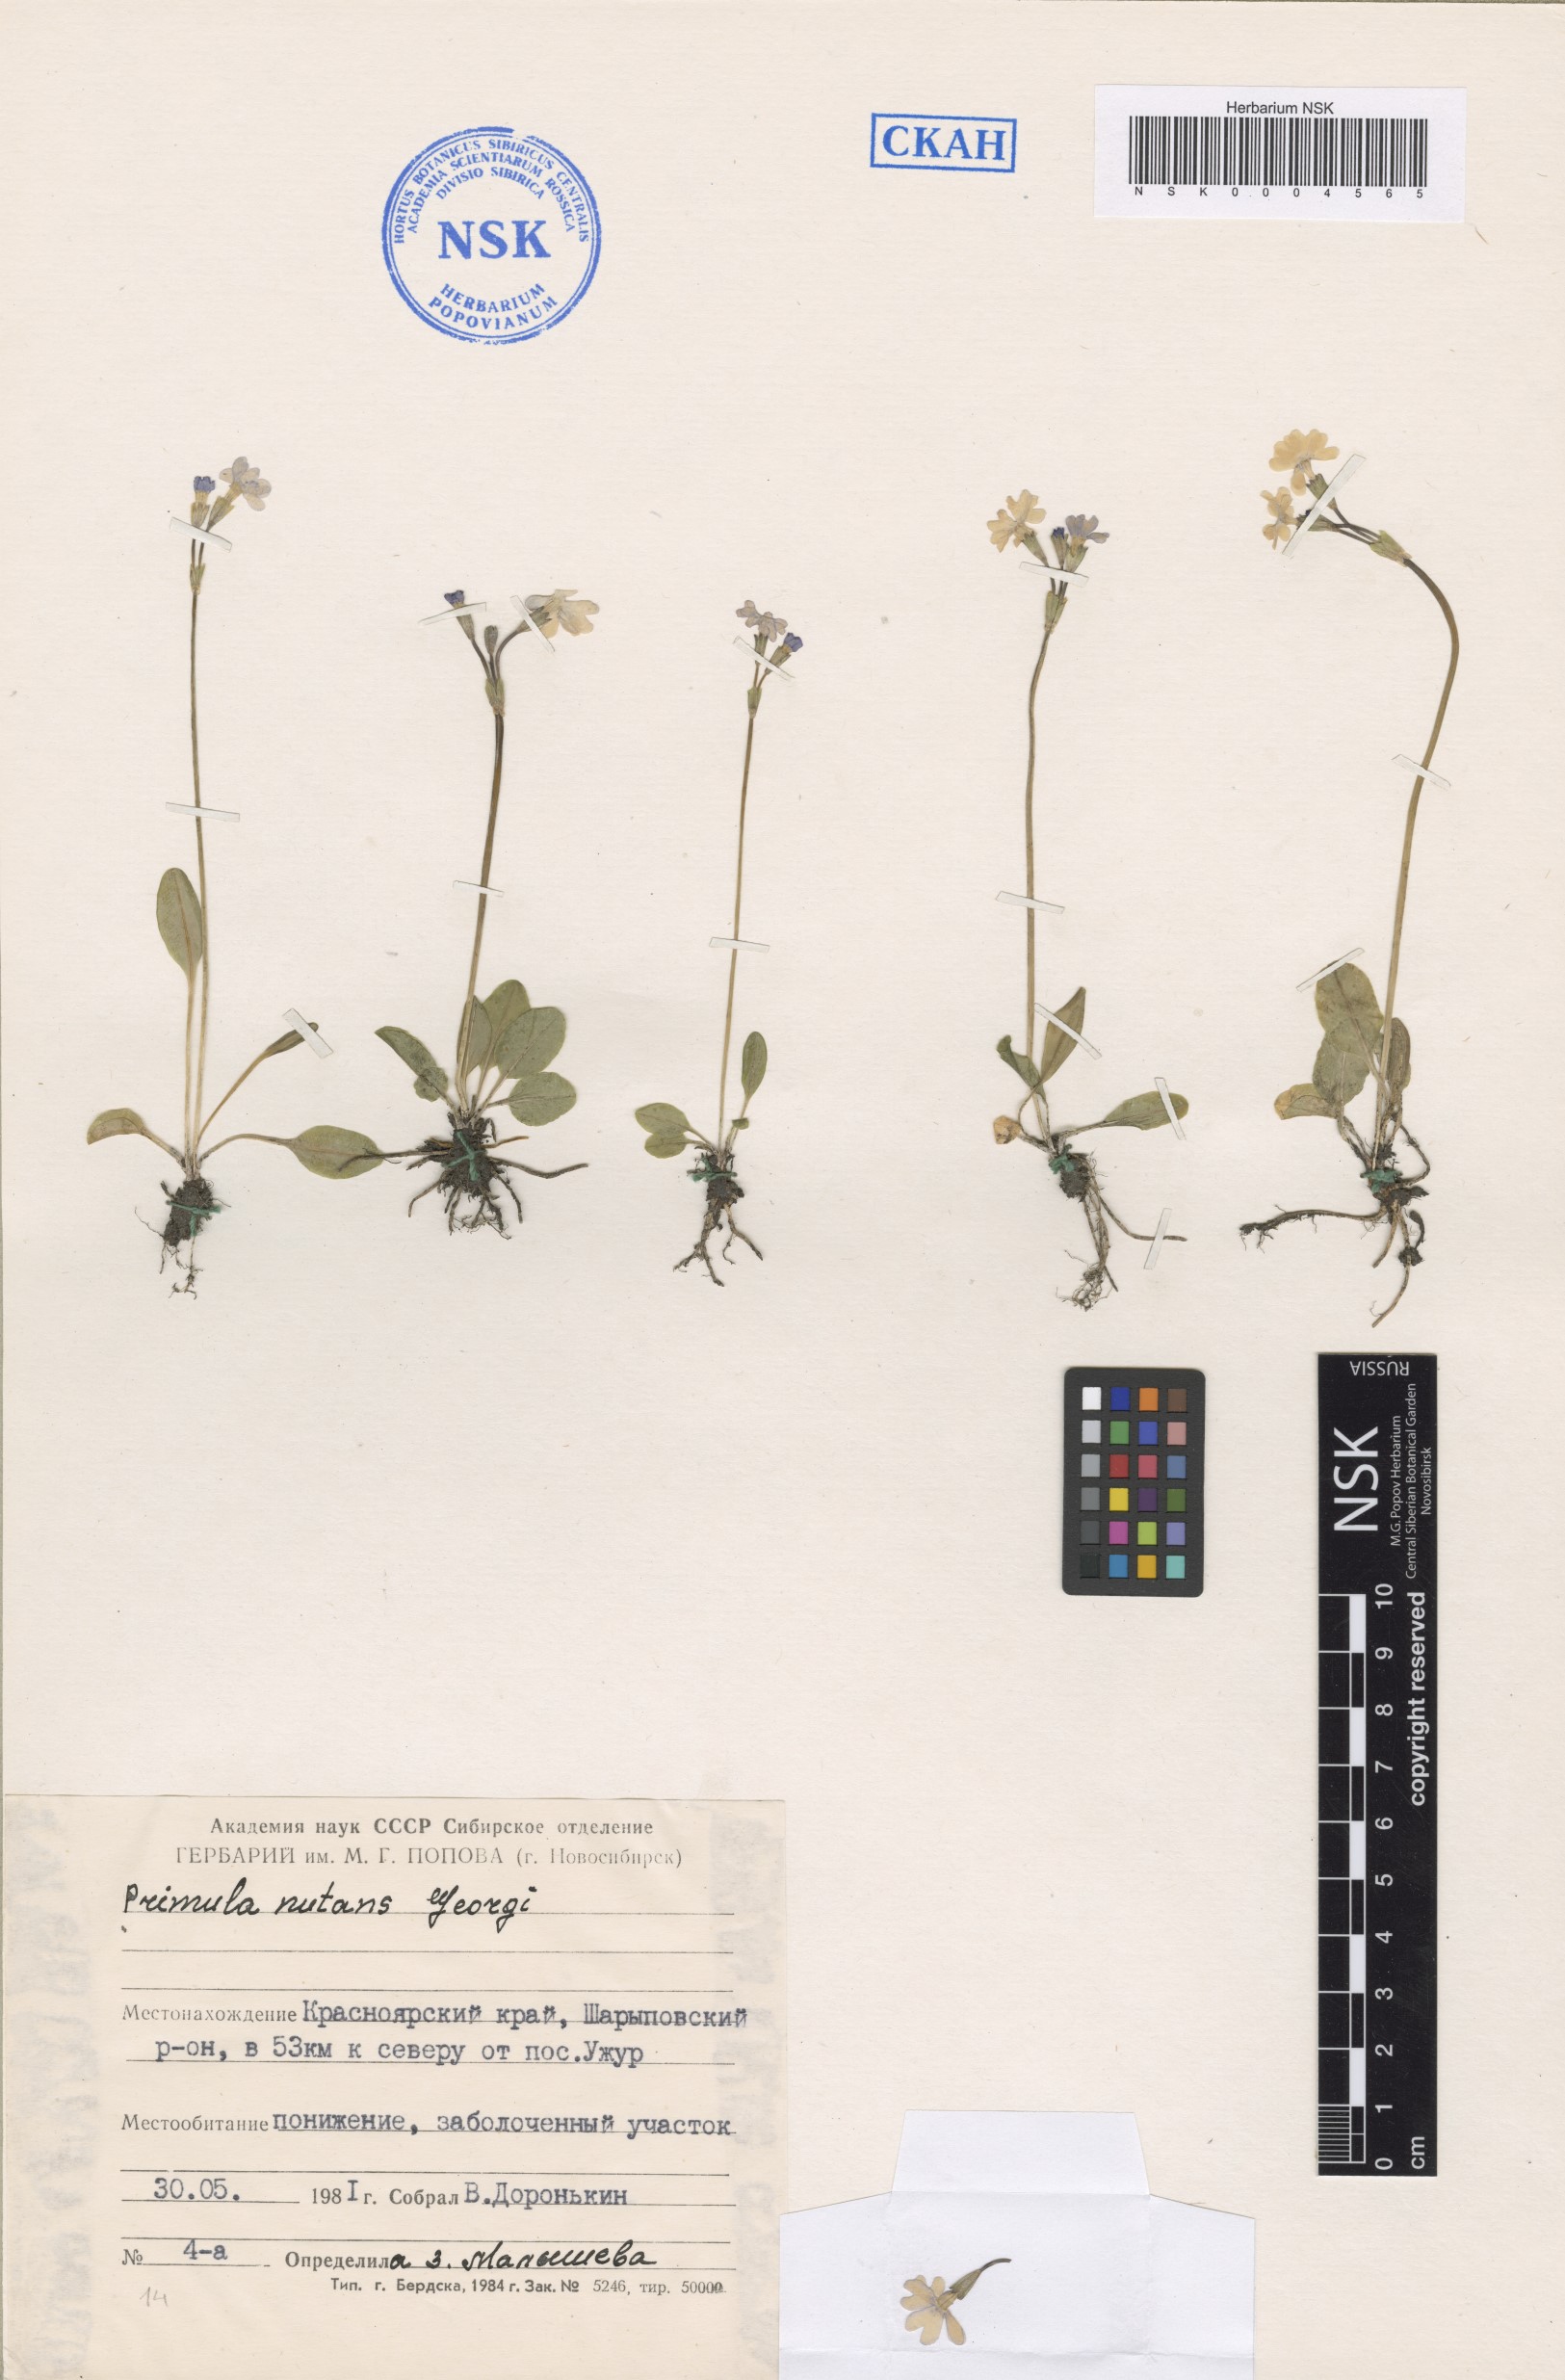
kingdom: Plantae
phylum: Tracheophyta
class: Magnoliopsida
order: Ericales
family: Primulaceae
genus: Primula
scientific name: Primula nutans
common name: Siberian primrose
